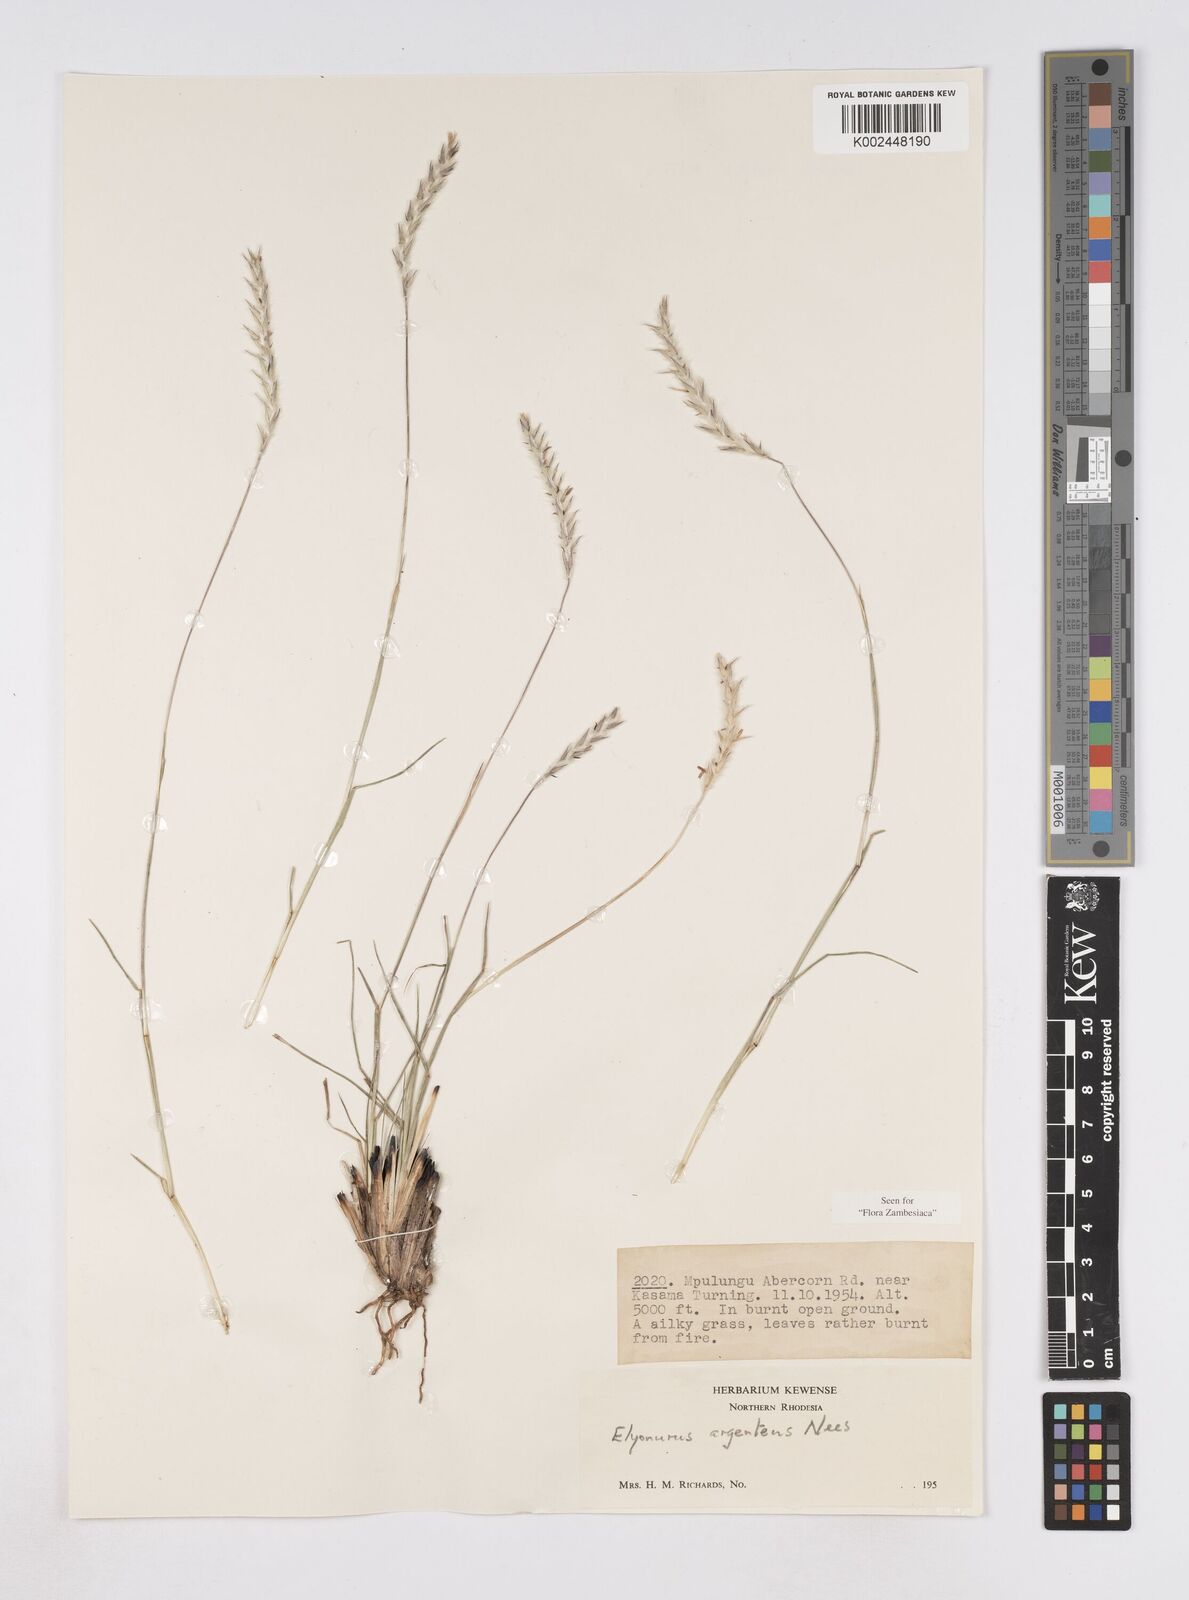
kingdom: Plantae
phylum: Tracheophyta
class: Liliopsida
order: Poales
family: Poaceae
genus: Elionurus
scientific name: Elionurus muticus
